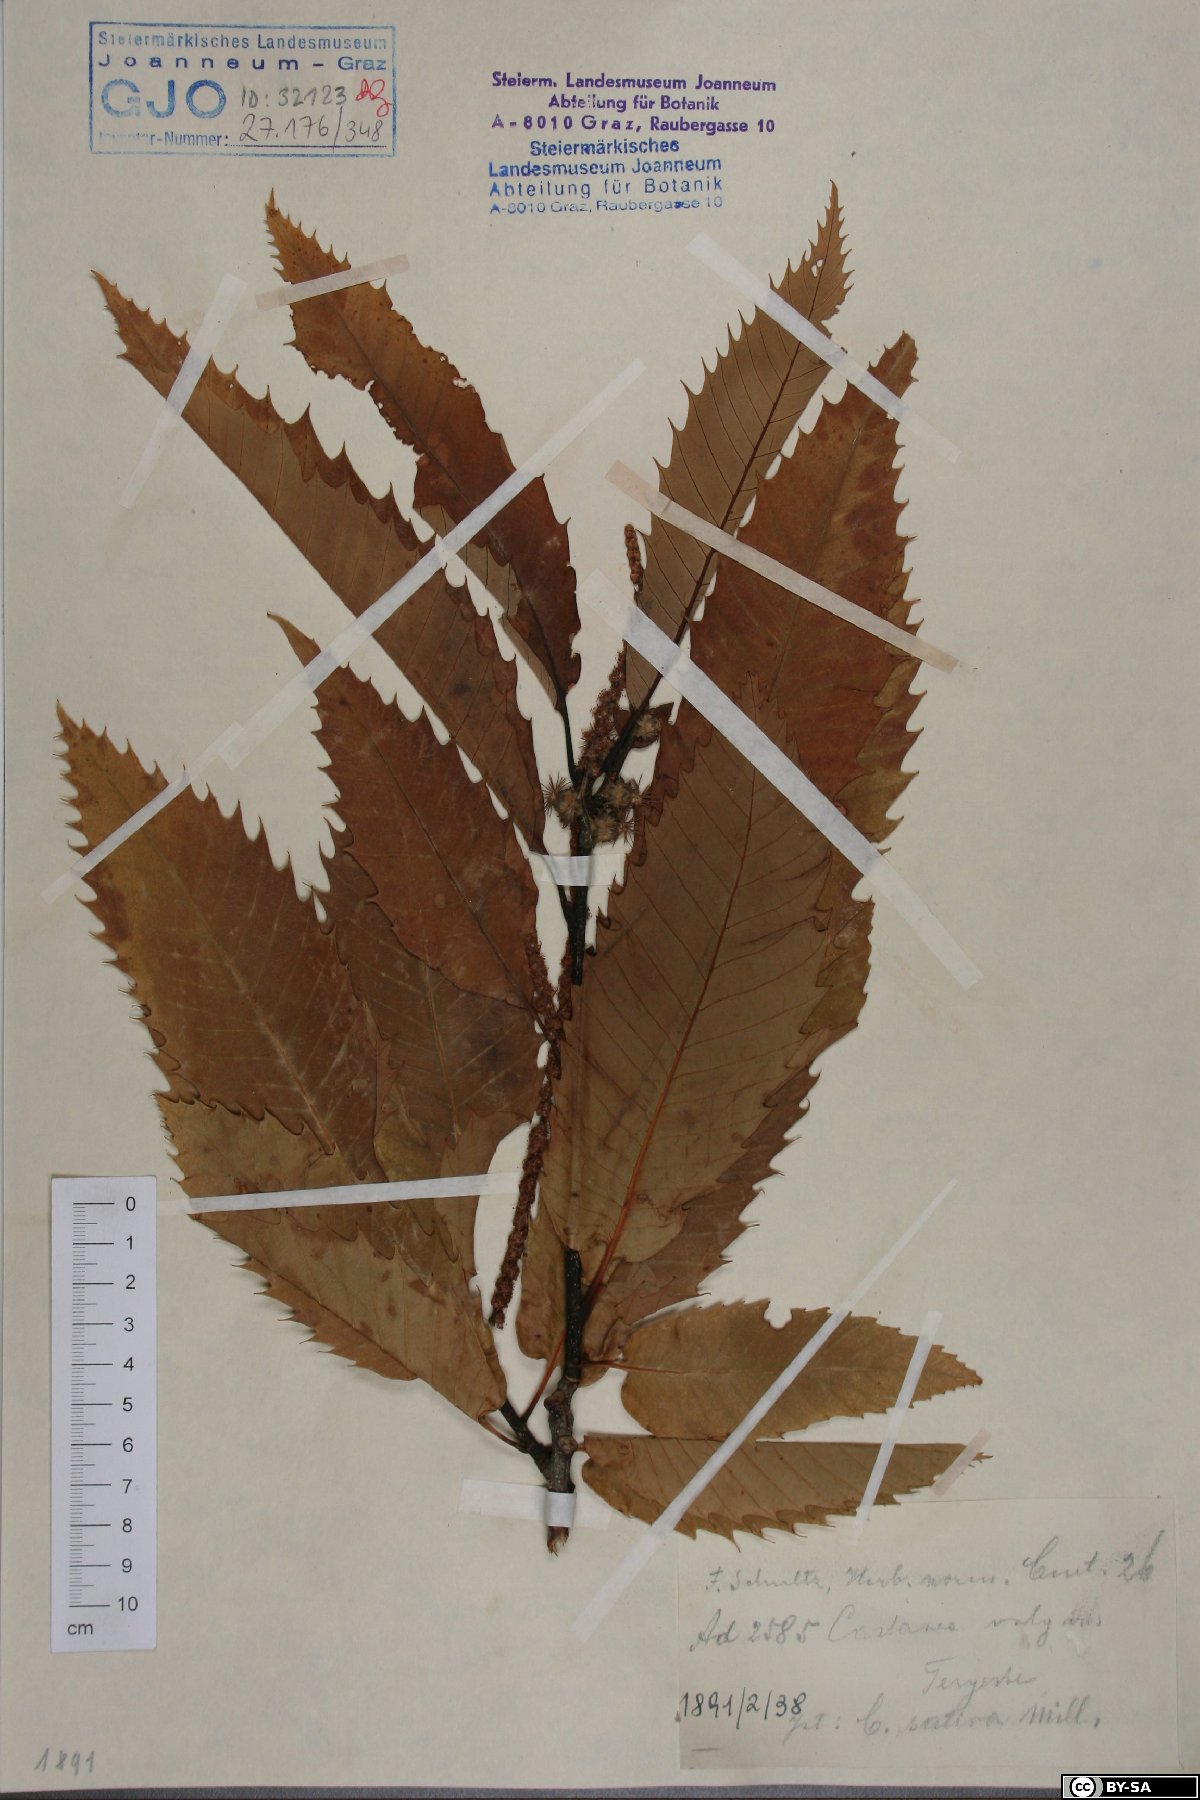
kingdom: Plantae
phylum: Tracheophyta
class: Magnoliopsida
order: Fagales
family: Fagaceae
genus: Castanea
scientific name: Castanea sativa
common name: Sweet chestnut
